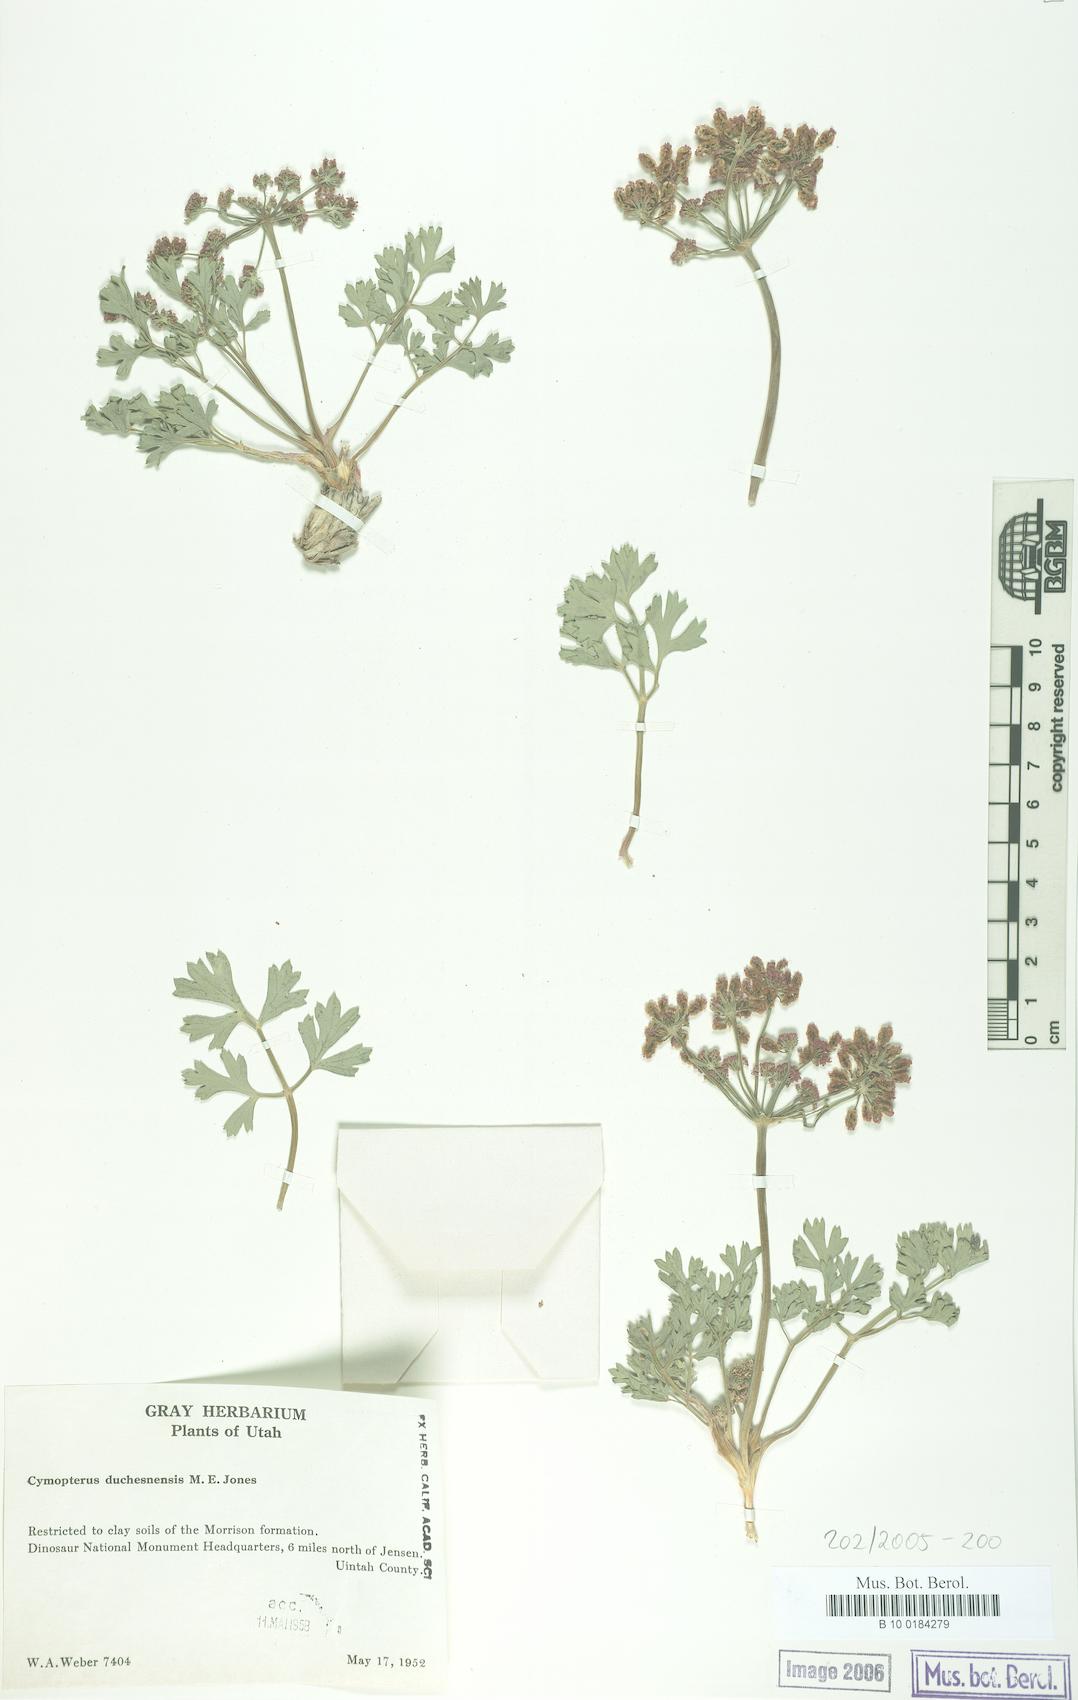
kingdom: Plantae
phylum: Tracheophyta
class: Magnoliopsida
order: Apiales
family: Apiaceae
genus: Aulospermum
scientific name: Aulospermum duchesnense
